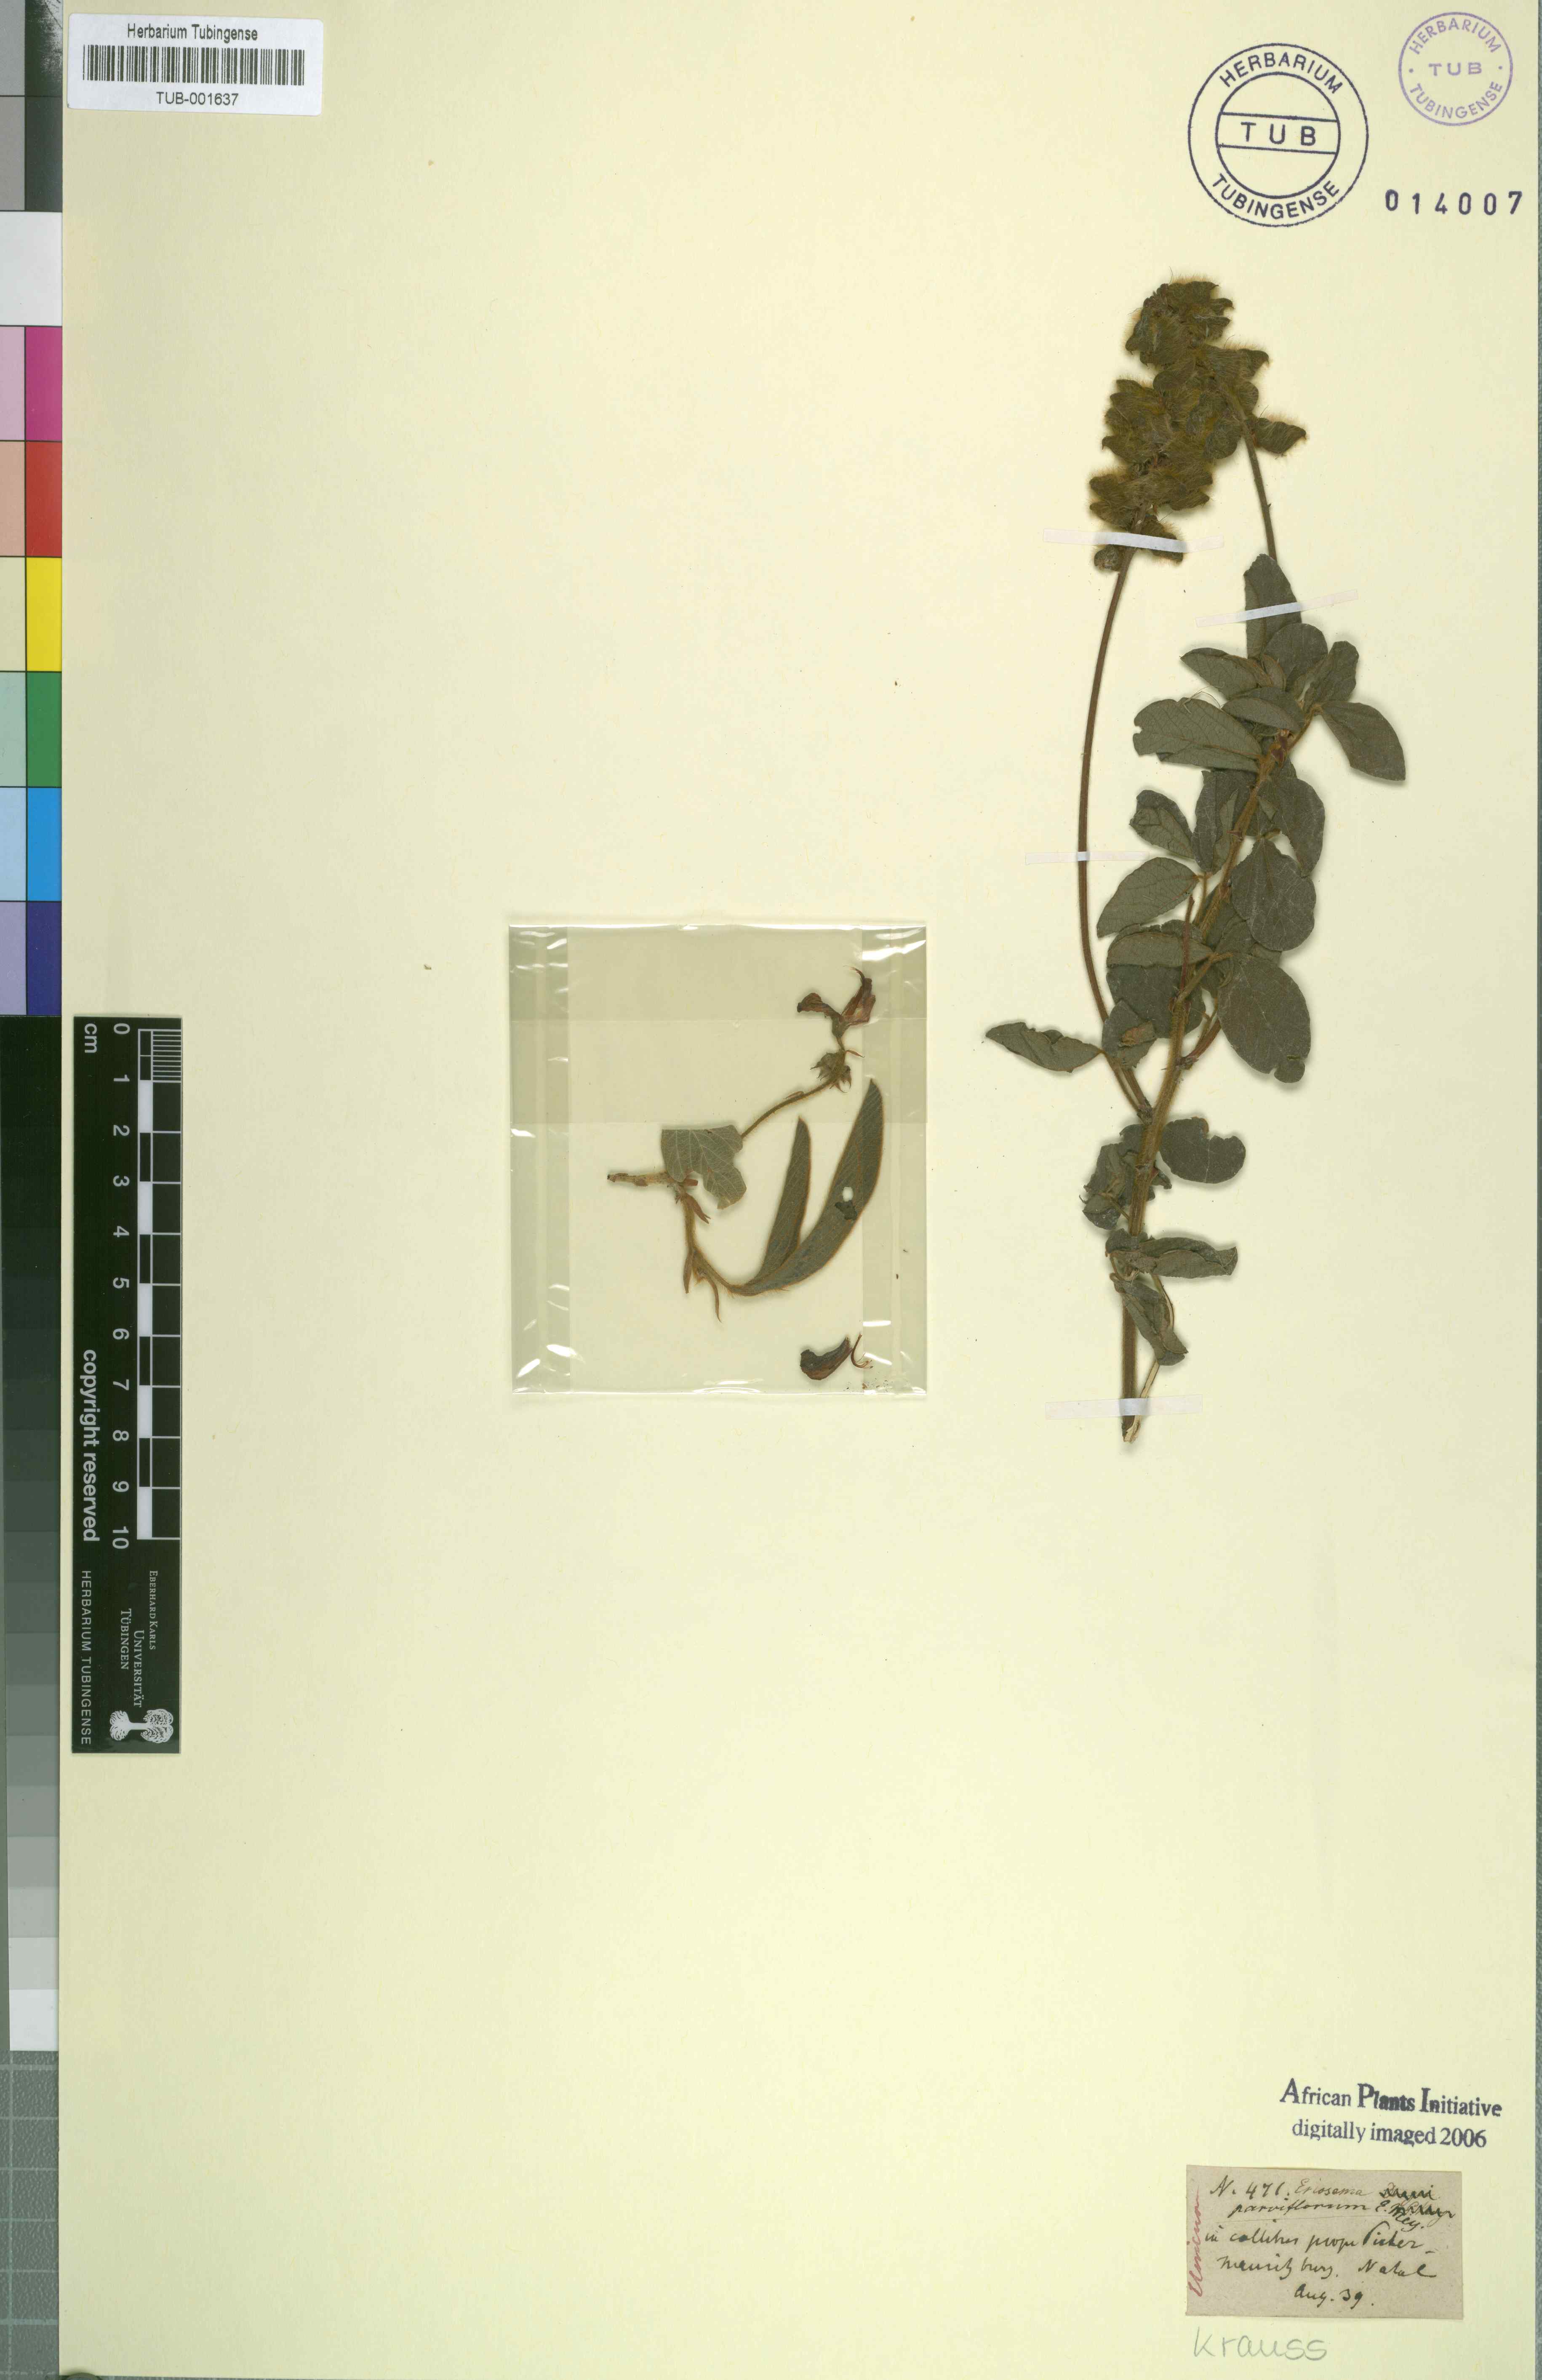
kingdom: Plantae
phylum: Tracheophyta
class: Magnoliopsida
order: Fabales
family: Fabaceae
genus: Eriosema
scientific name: Eriosema parviflorum
